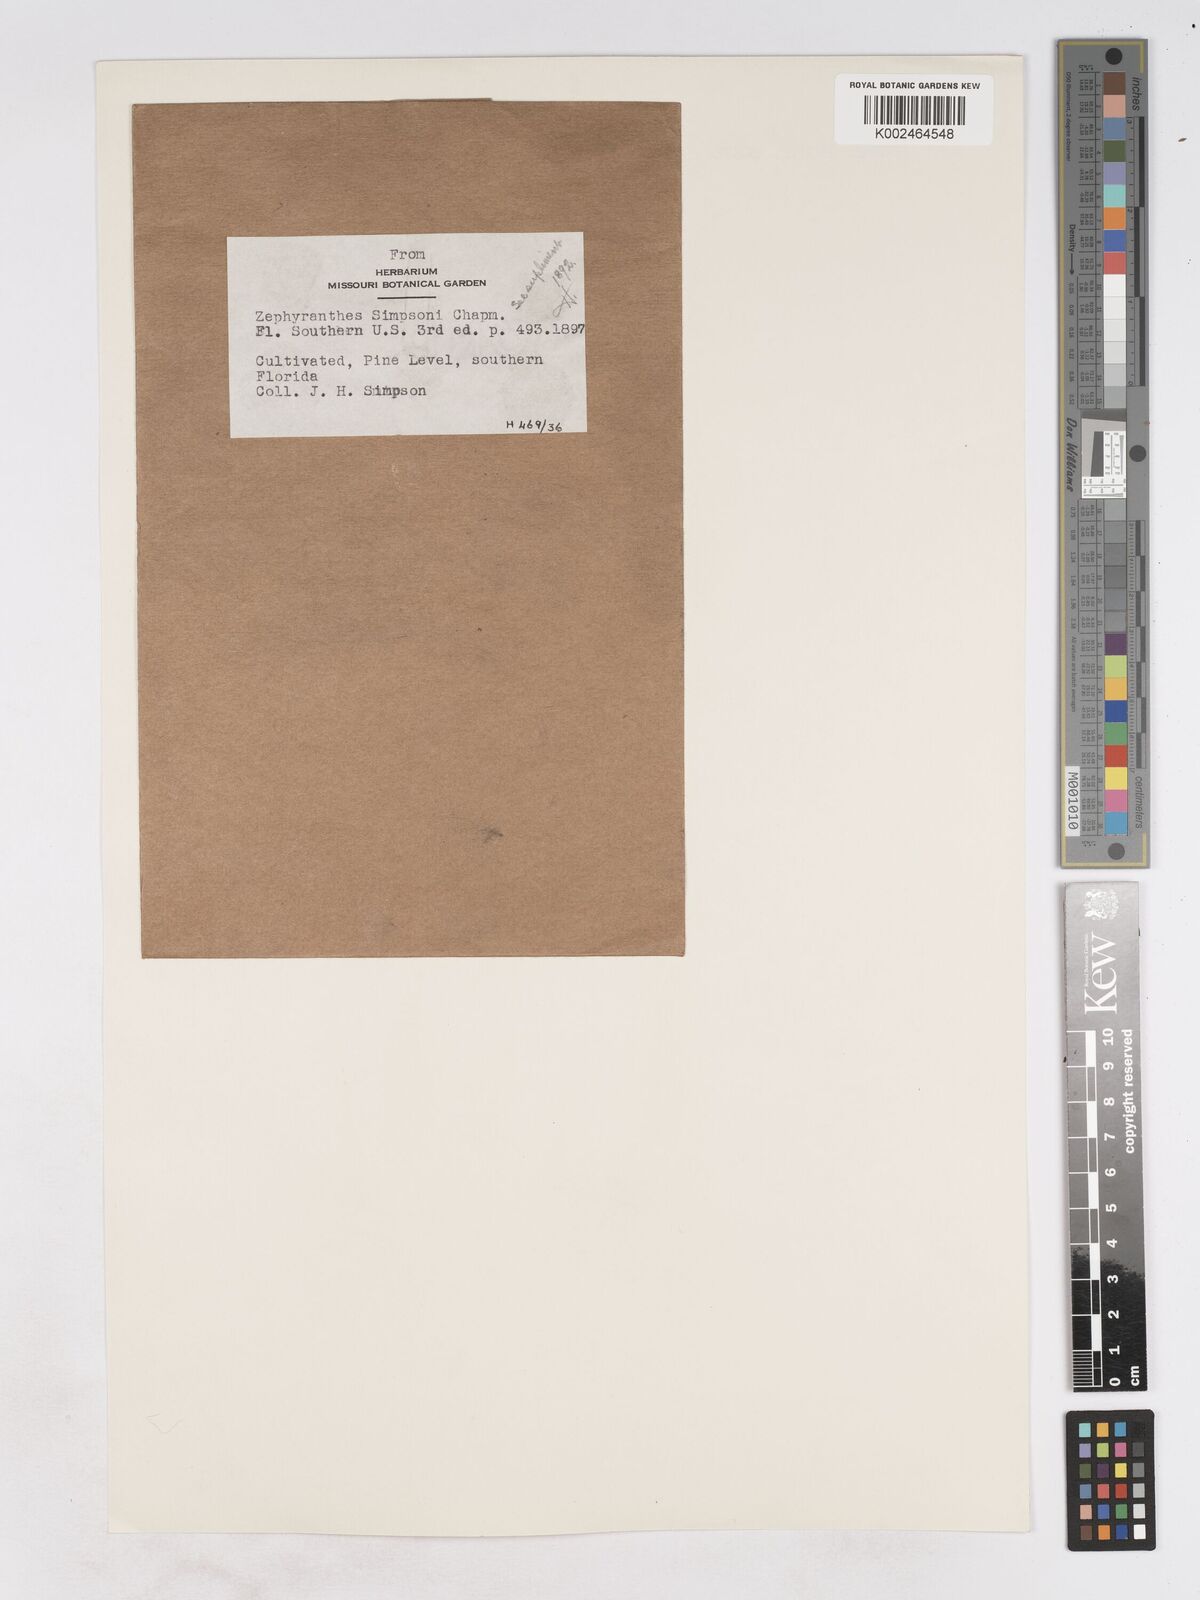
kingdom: Plantae
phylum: Tracheophyta
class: Liliopsida
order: Asparagales
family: Amaryllidaceae
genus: Zephyranthes
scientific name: Zephyranthes simpsonii
